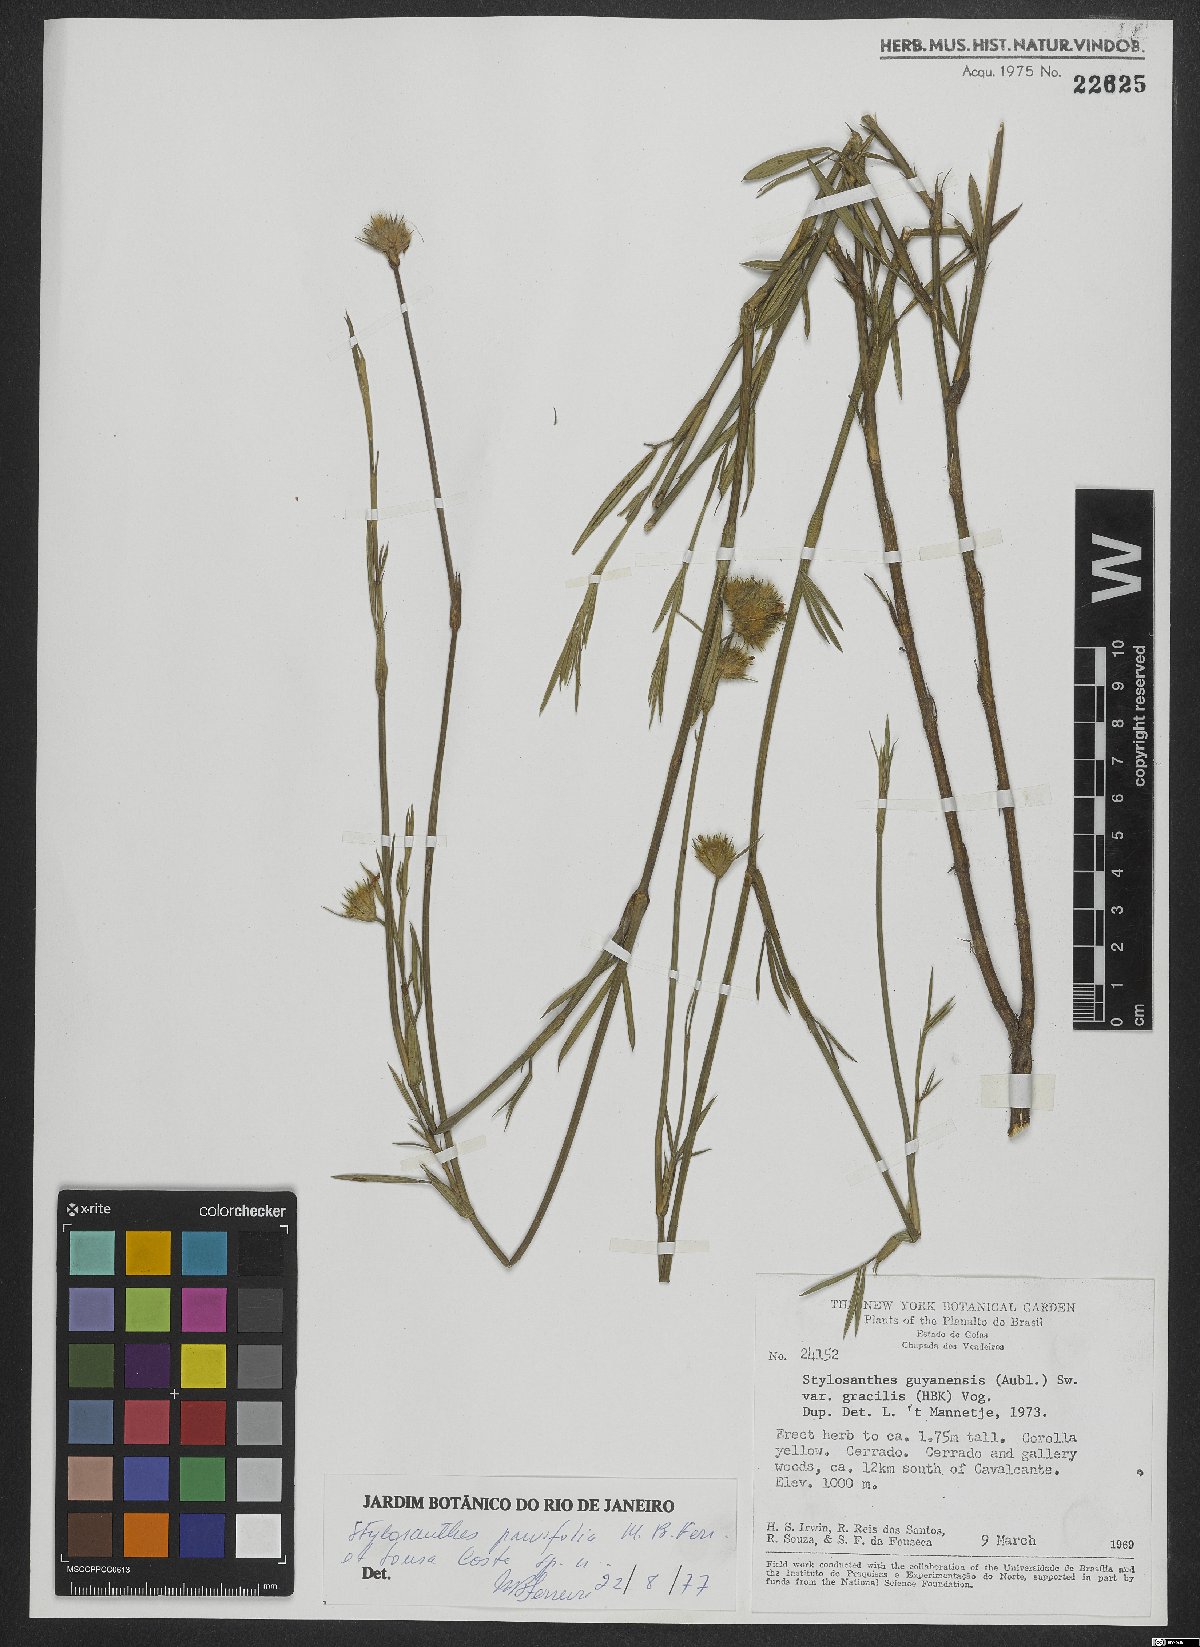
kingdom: Plantae
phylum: Tracheophyta
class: Magnoliopsida
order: Fabales
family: Fabaceae
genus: Stylosanthes
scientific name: Stylosanthes
